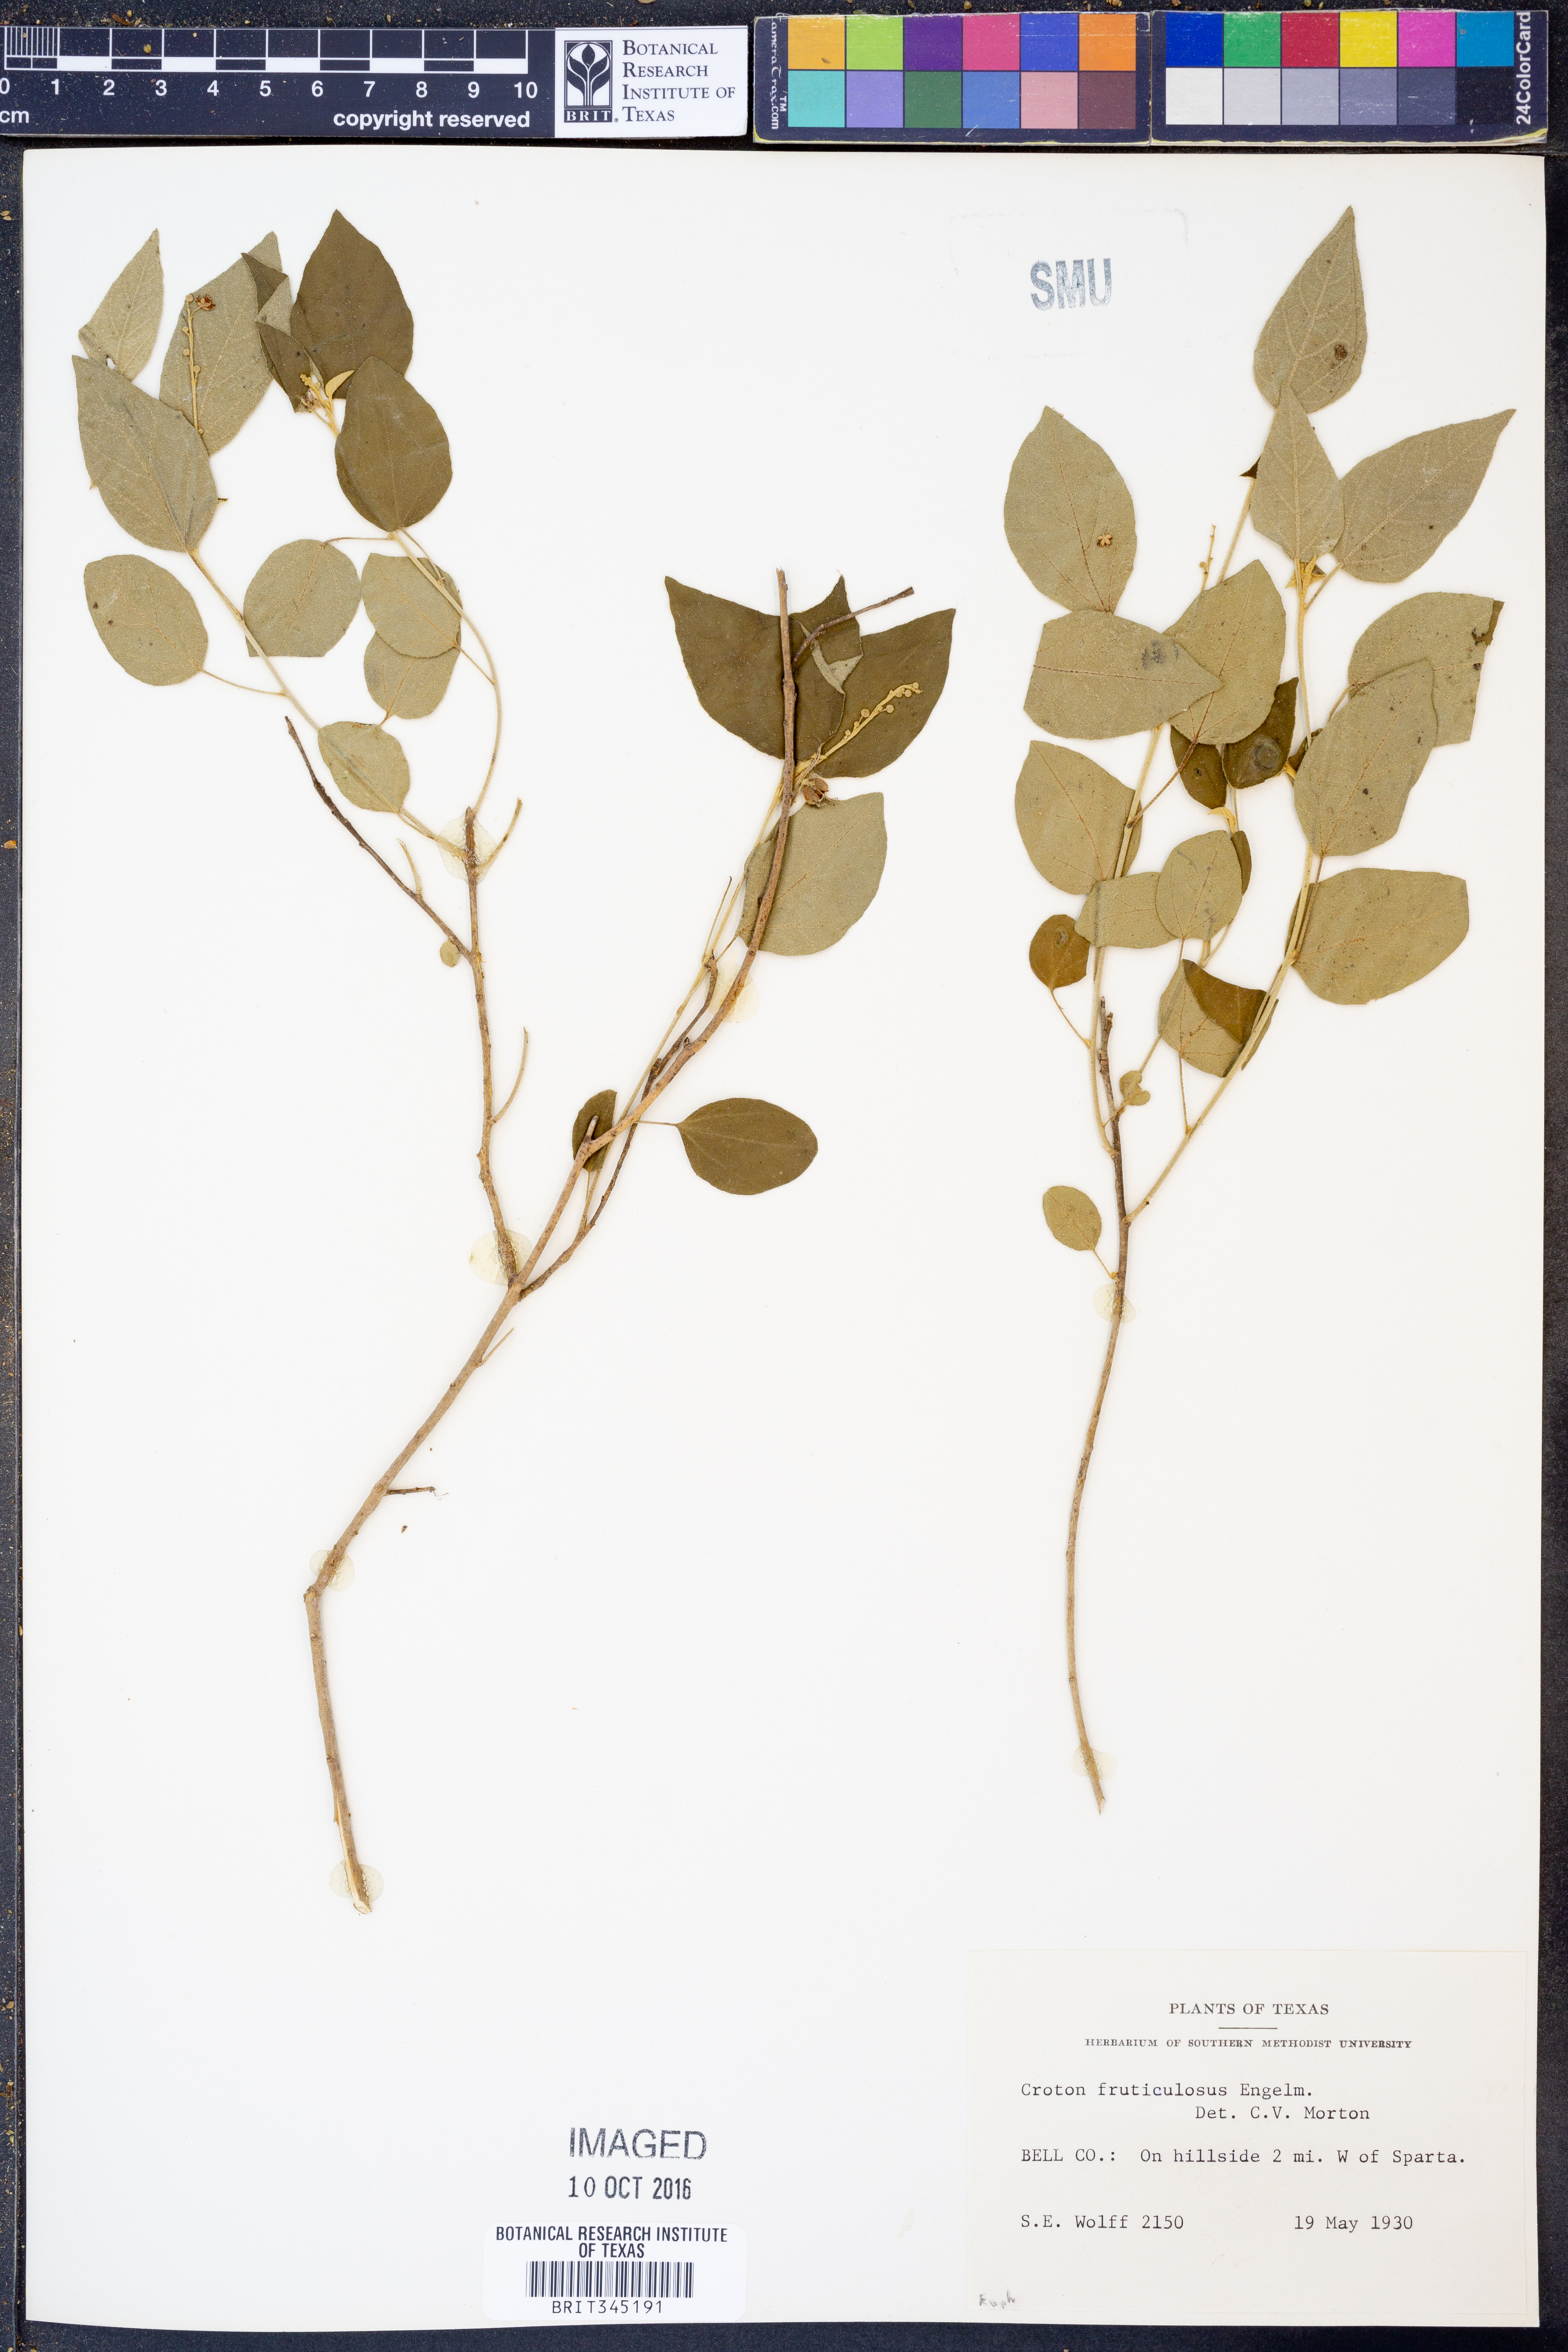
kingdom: Plantae
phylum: Tracheophyta
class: Magnoliopsida
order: Malpighiales
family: Euphorbiaceae
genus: Croton
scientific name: Croton fruticulosus
